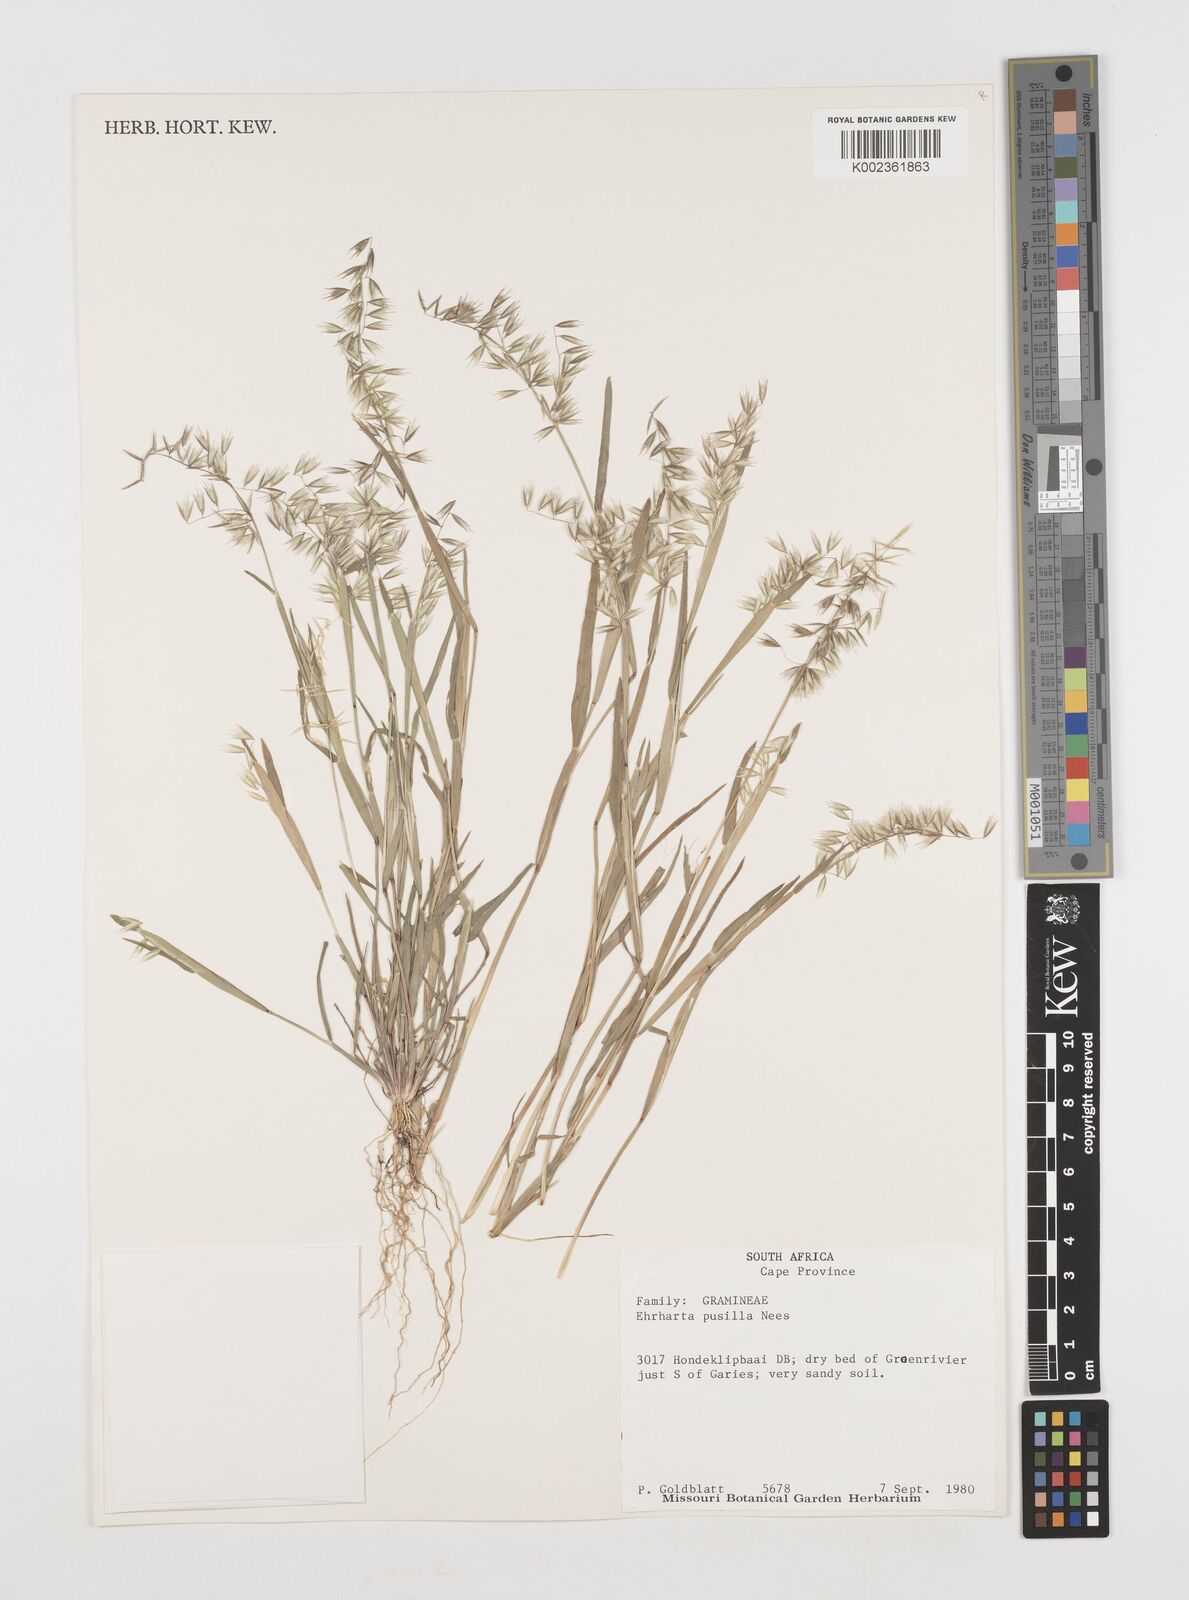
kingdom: Plantae
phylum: Tracheophyta
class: Liliopsida
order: Poales
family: Poaceae
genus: Ehrharta
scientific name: Ehrharta pusilla
